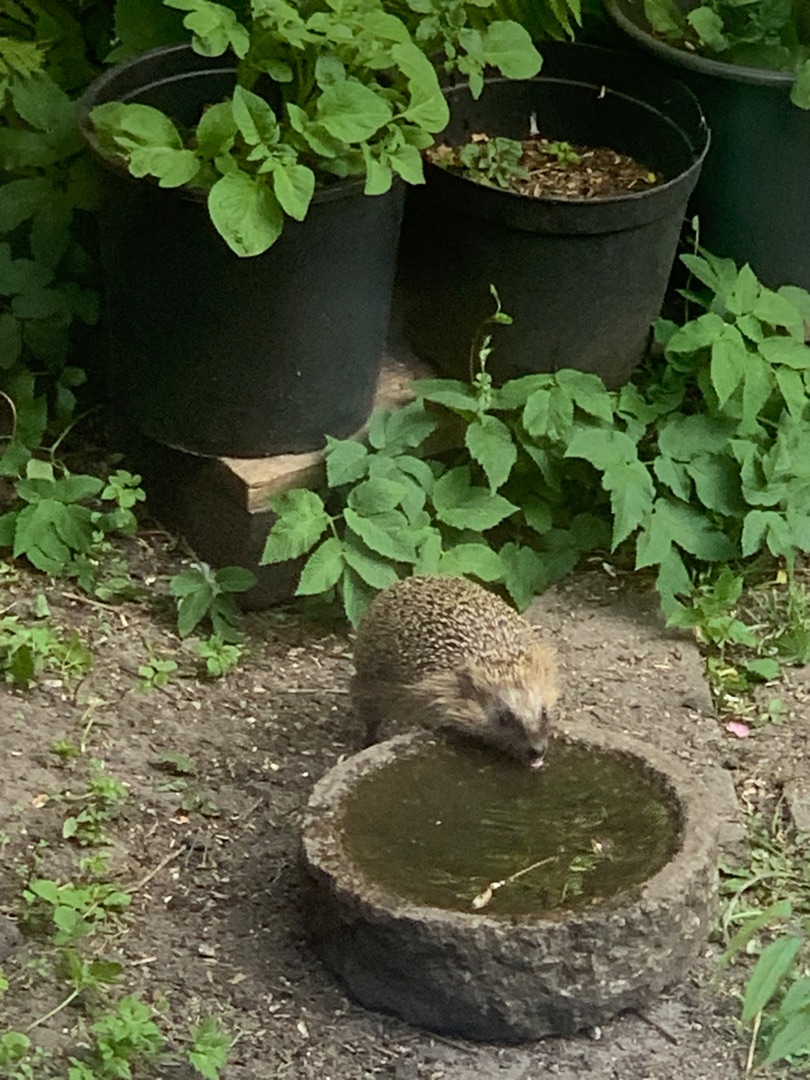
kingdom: Animalia
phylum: Chordata
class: Mammalia
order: Erinaceomorpha
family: Erinaceidae
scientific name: Erinaceidae
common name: Pindsvin
